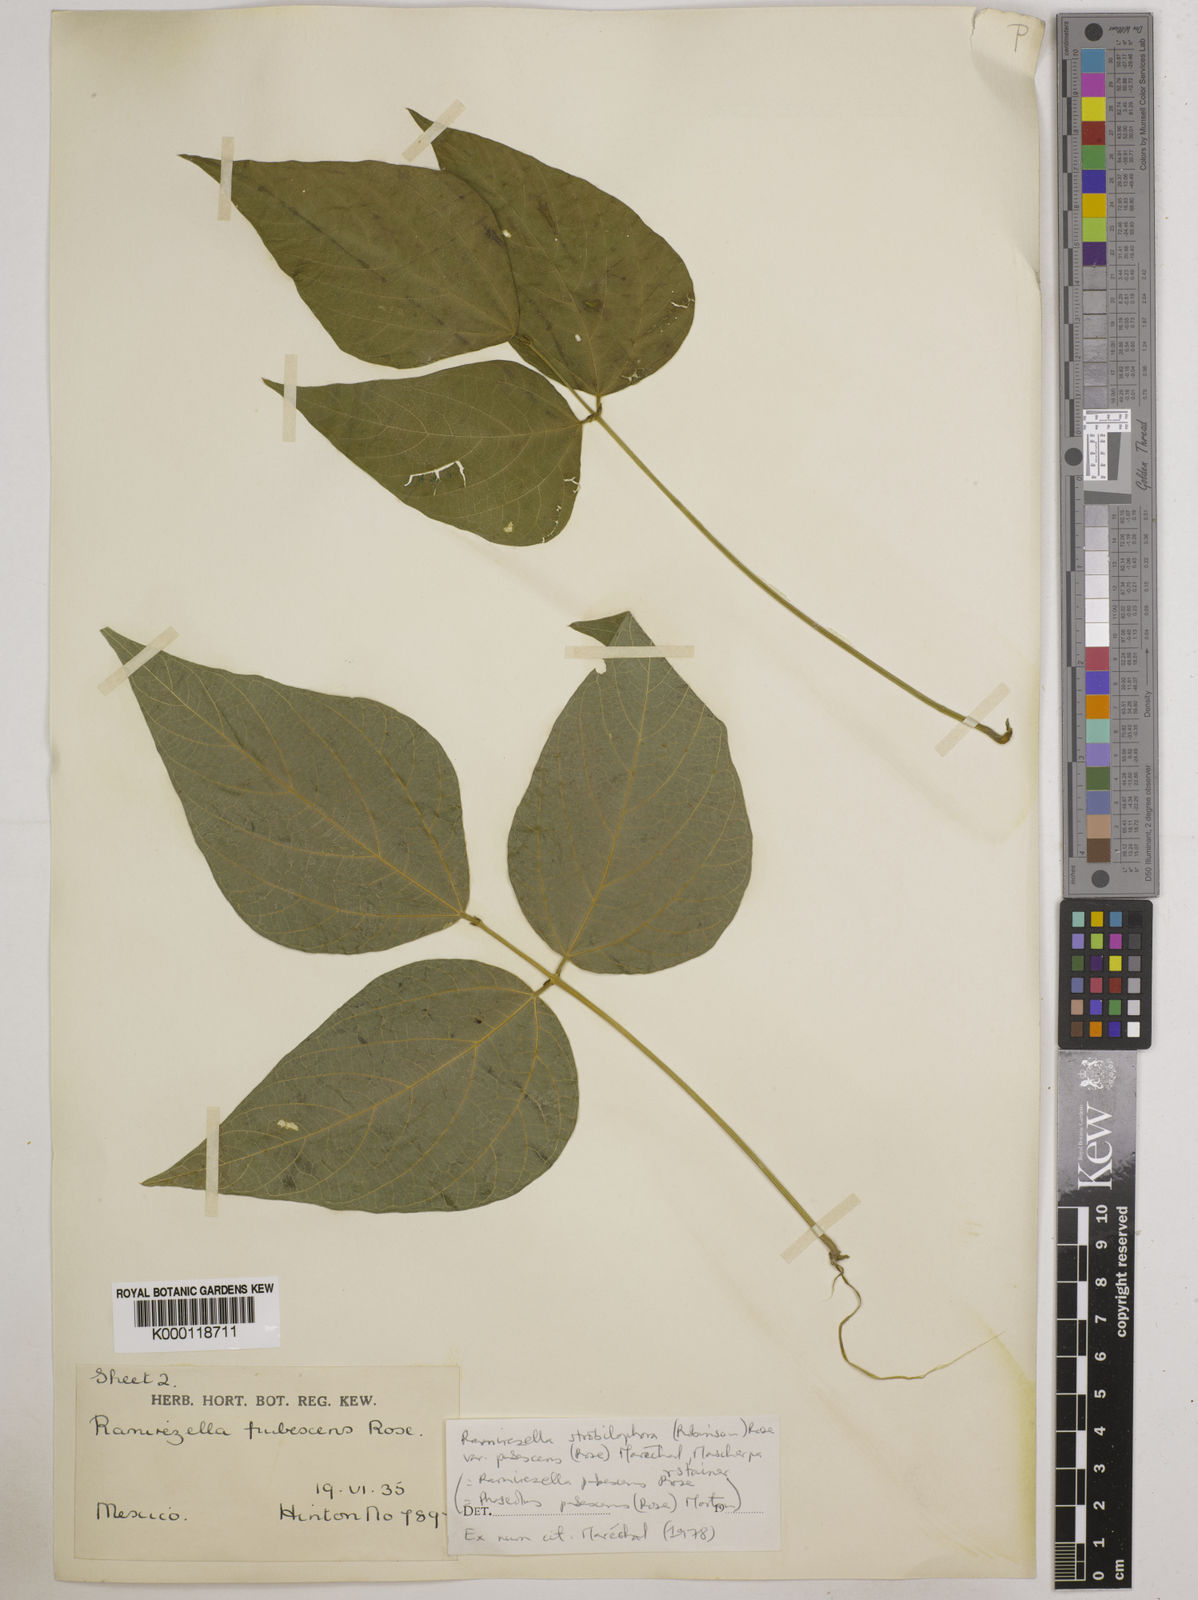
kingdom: Plantae
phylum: Tracheophyta
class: Magnoliopsida
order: Fabales
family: Fabaceae
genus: Ramirezella
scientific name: Ramirezella strobilophora
